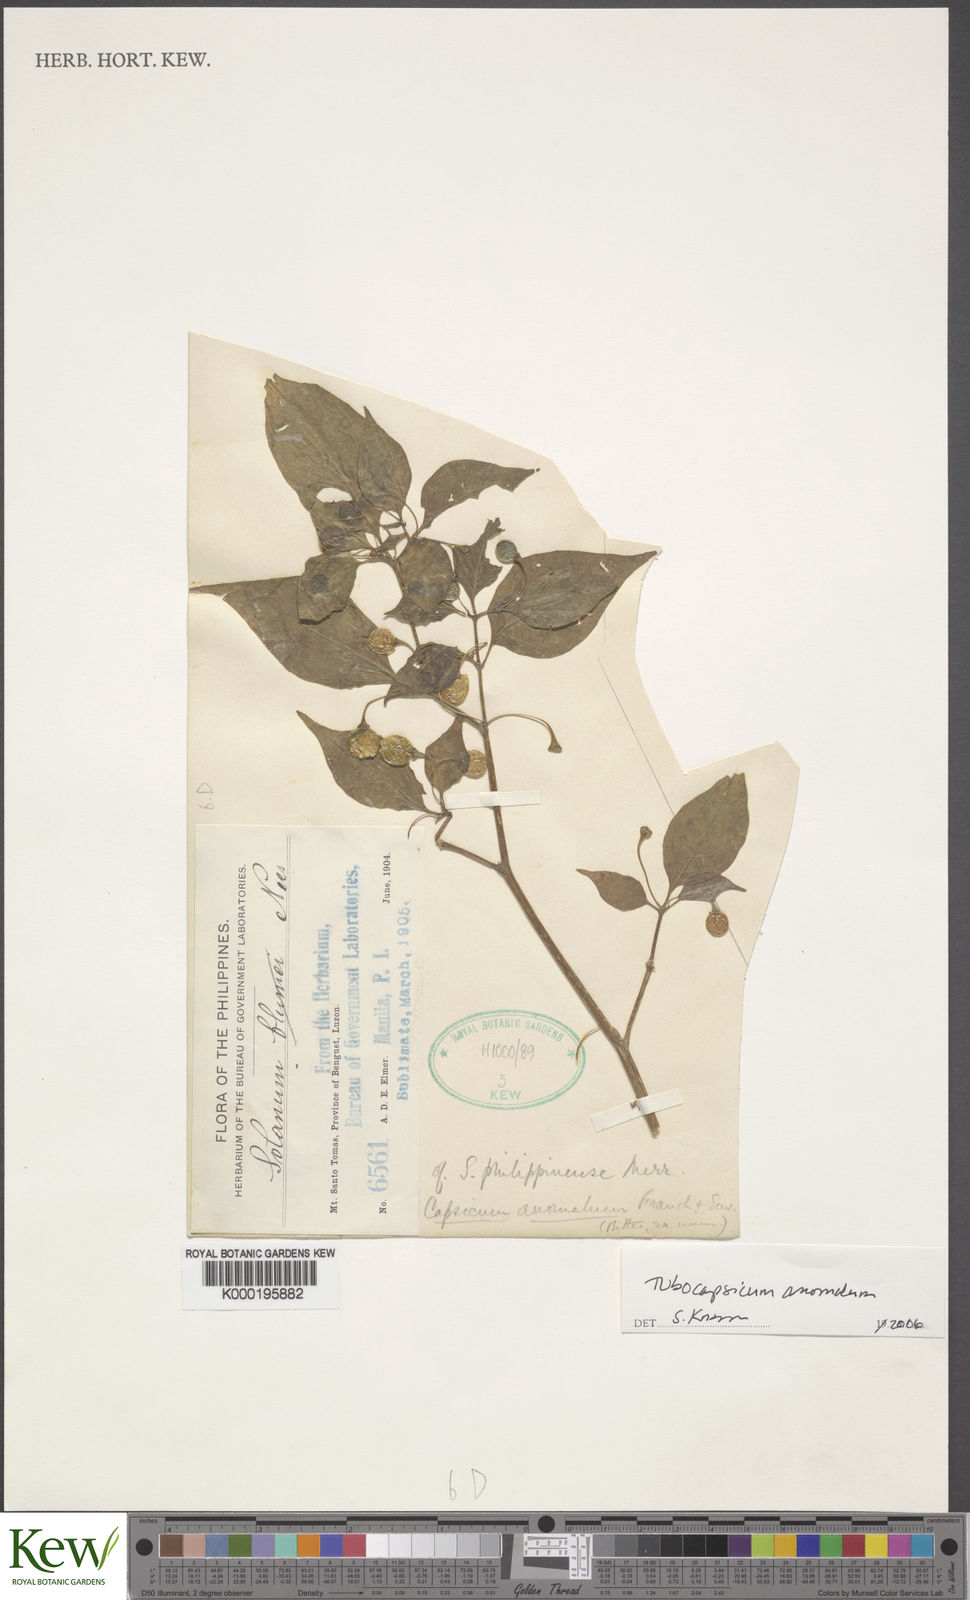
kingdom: Plantae
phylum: Tracheophyta
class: Magnoliopsida
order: Solanales
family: Solanaceae
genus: Tubocapsicum
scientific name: Tubocapsicum anomalum
